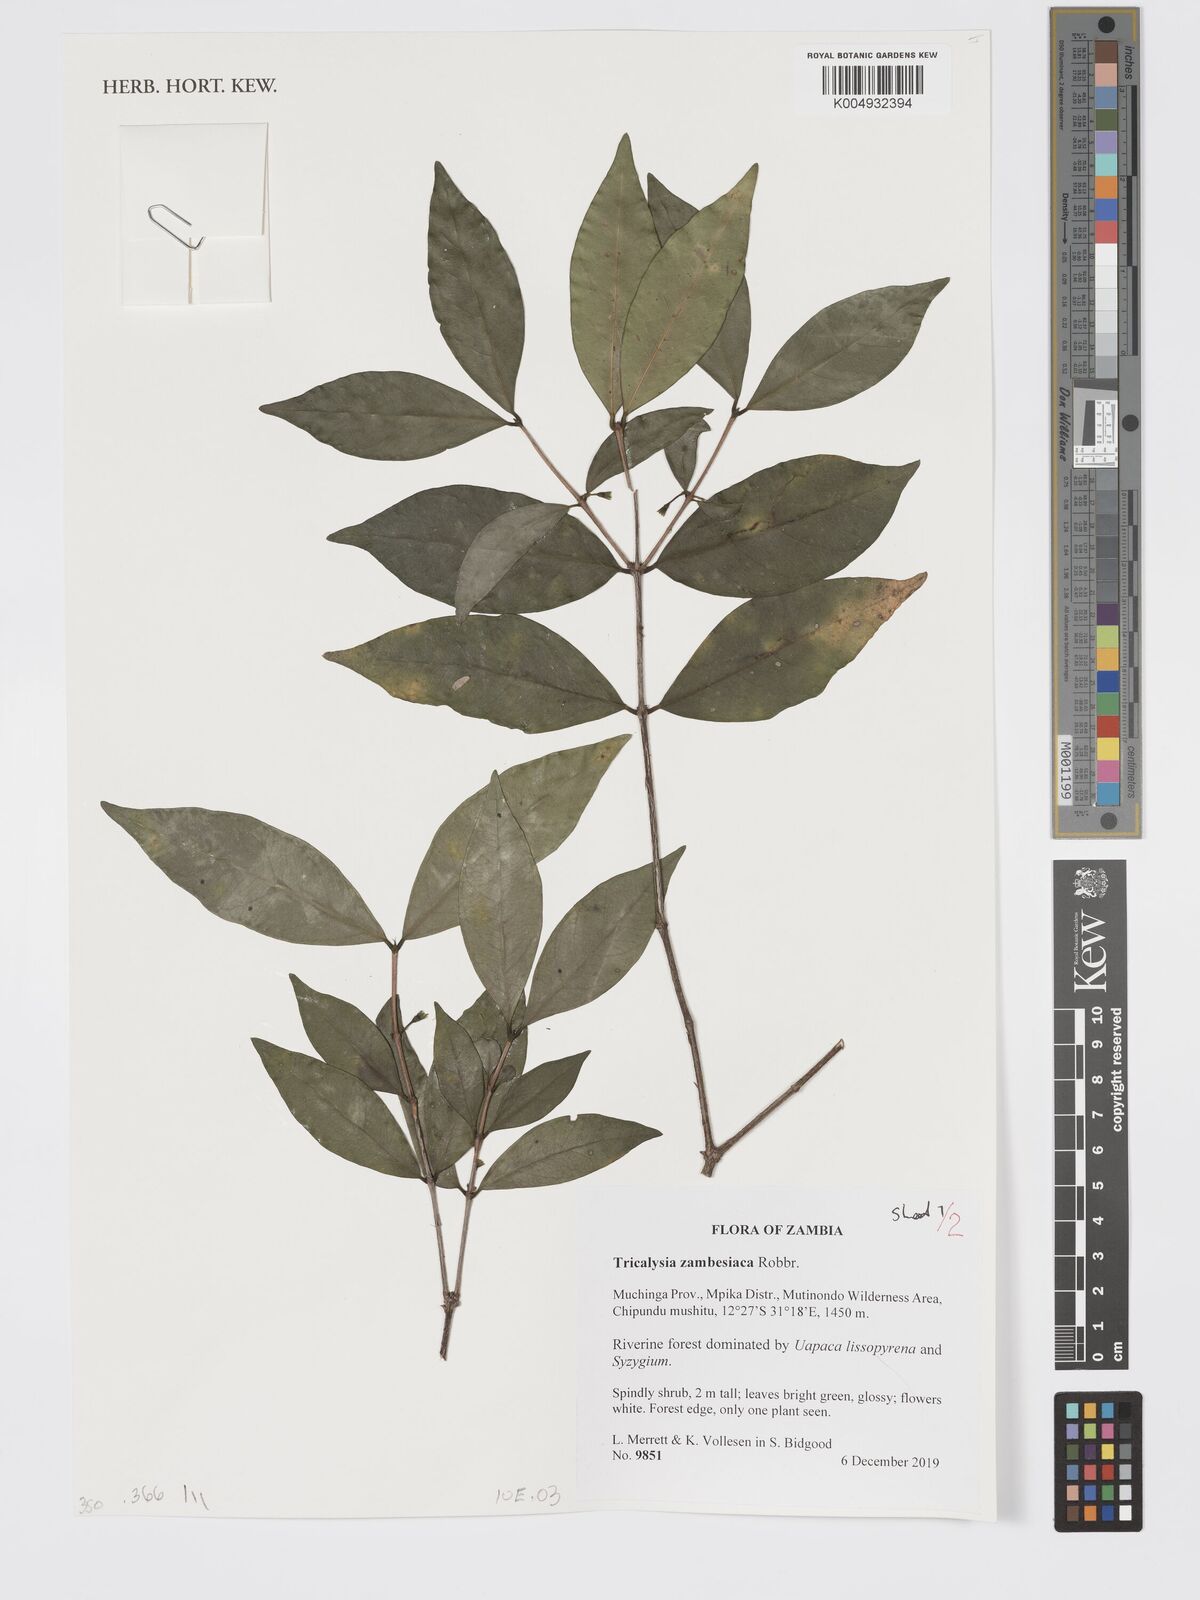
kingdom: Plantae
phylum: Tracheophyta
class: Magnoliopsida
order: Gentianales
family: Rubiaceae
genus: Tricalysia
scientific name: Tricalysia zambesiaca
